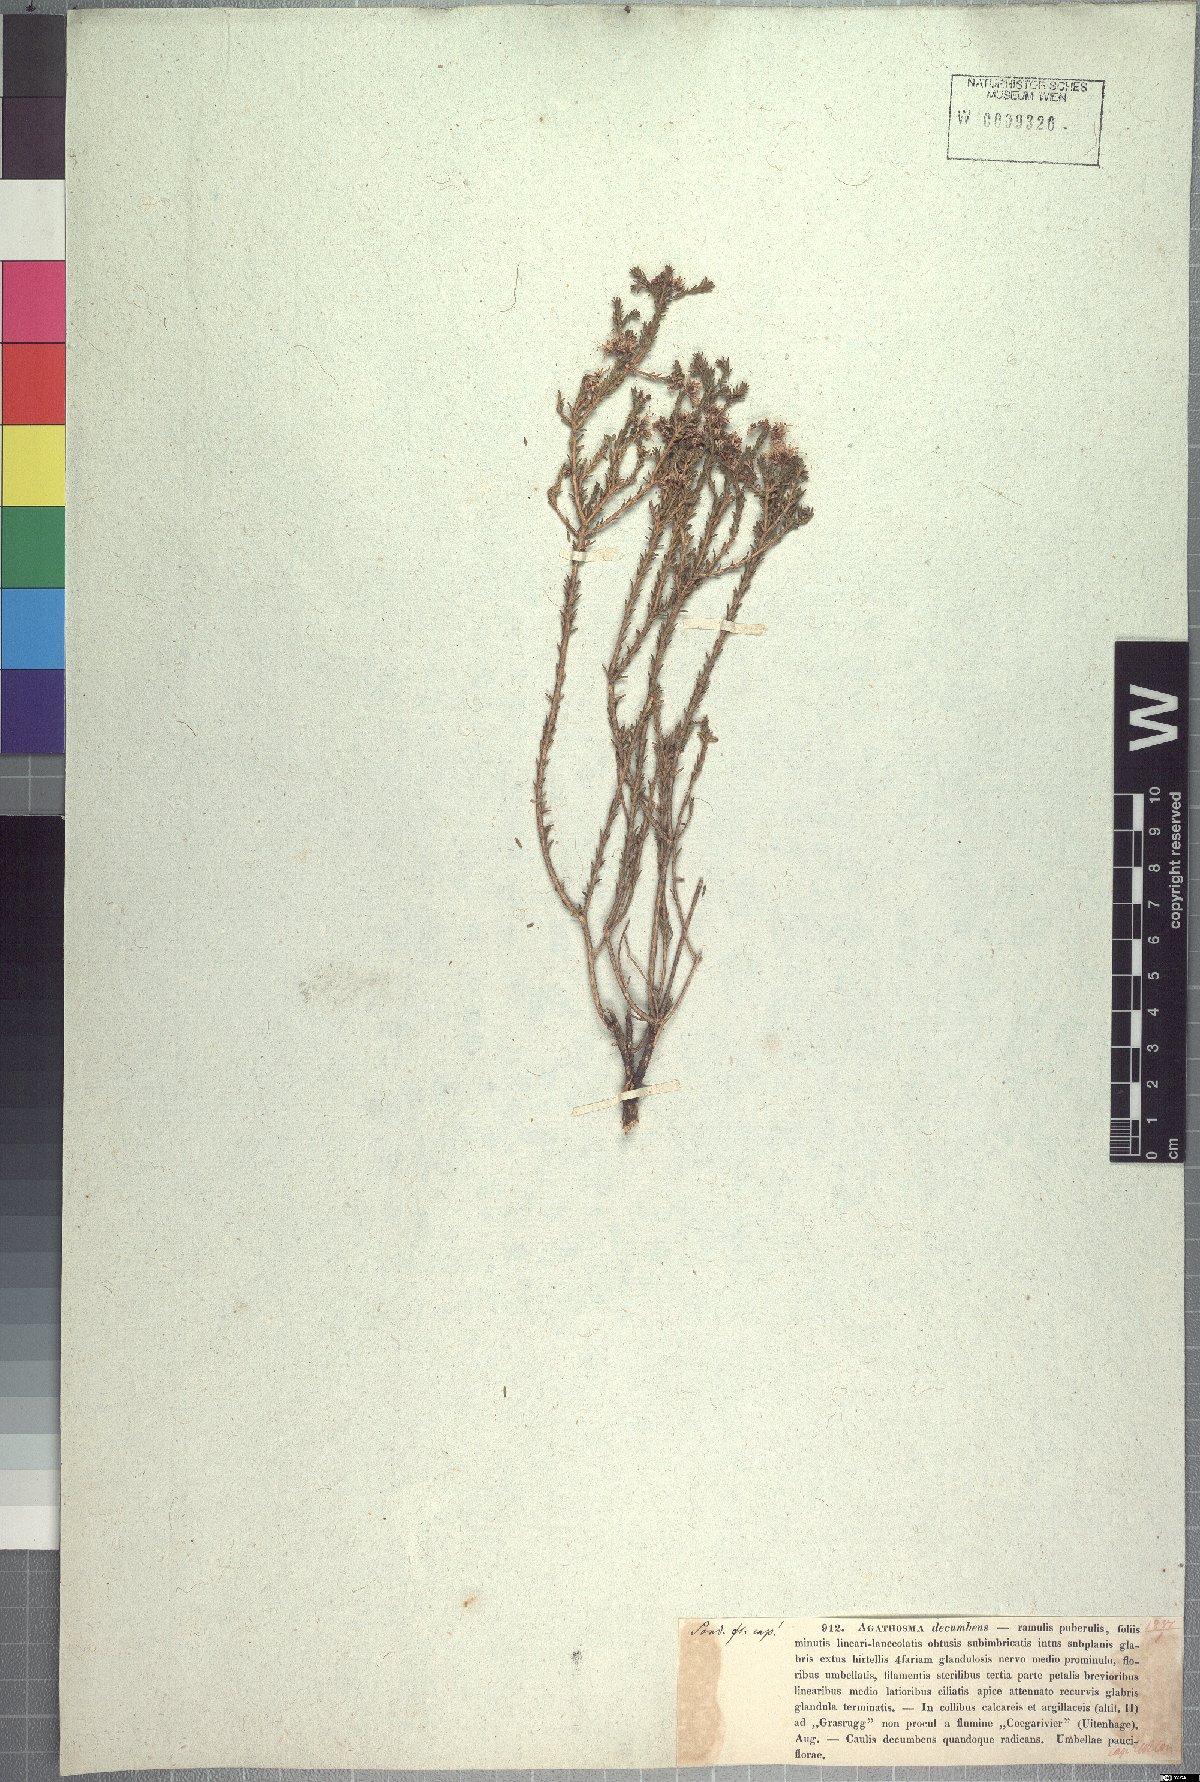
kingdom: Plantae
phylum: Tracheophyta
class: Magnoliopsida
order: Sapindales
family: Rutaceae
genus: Agathosma
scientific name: Agathosma capensis
